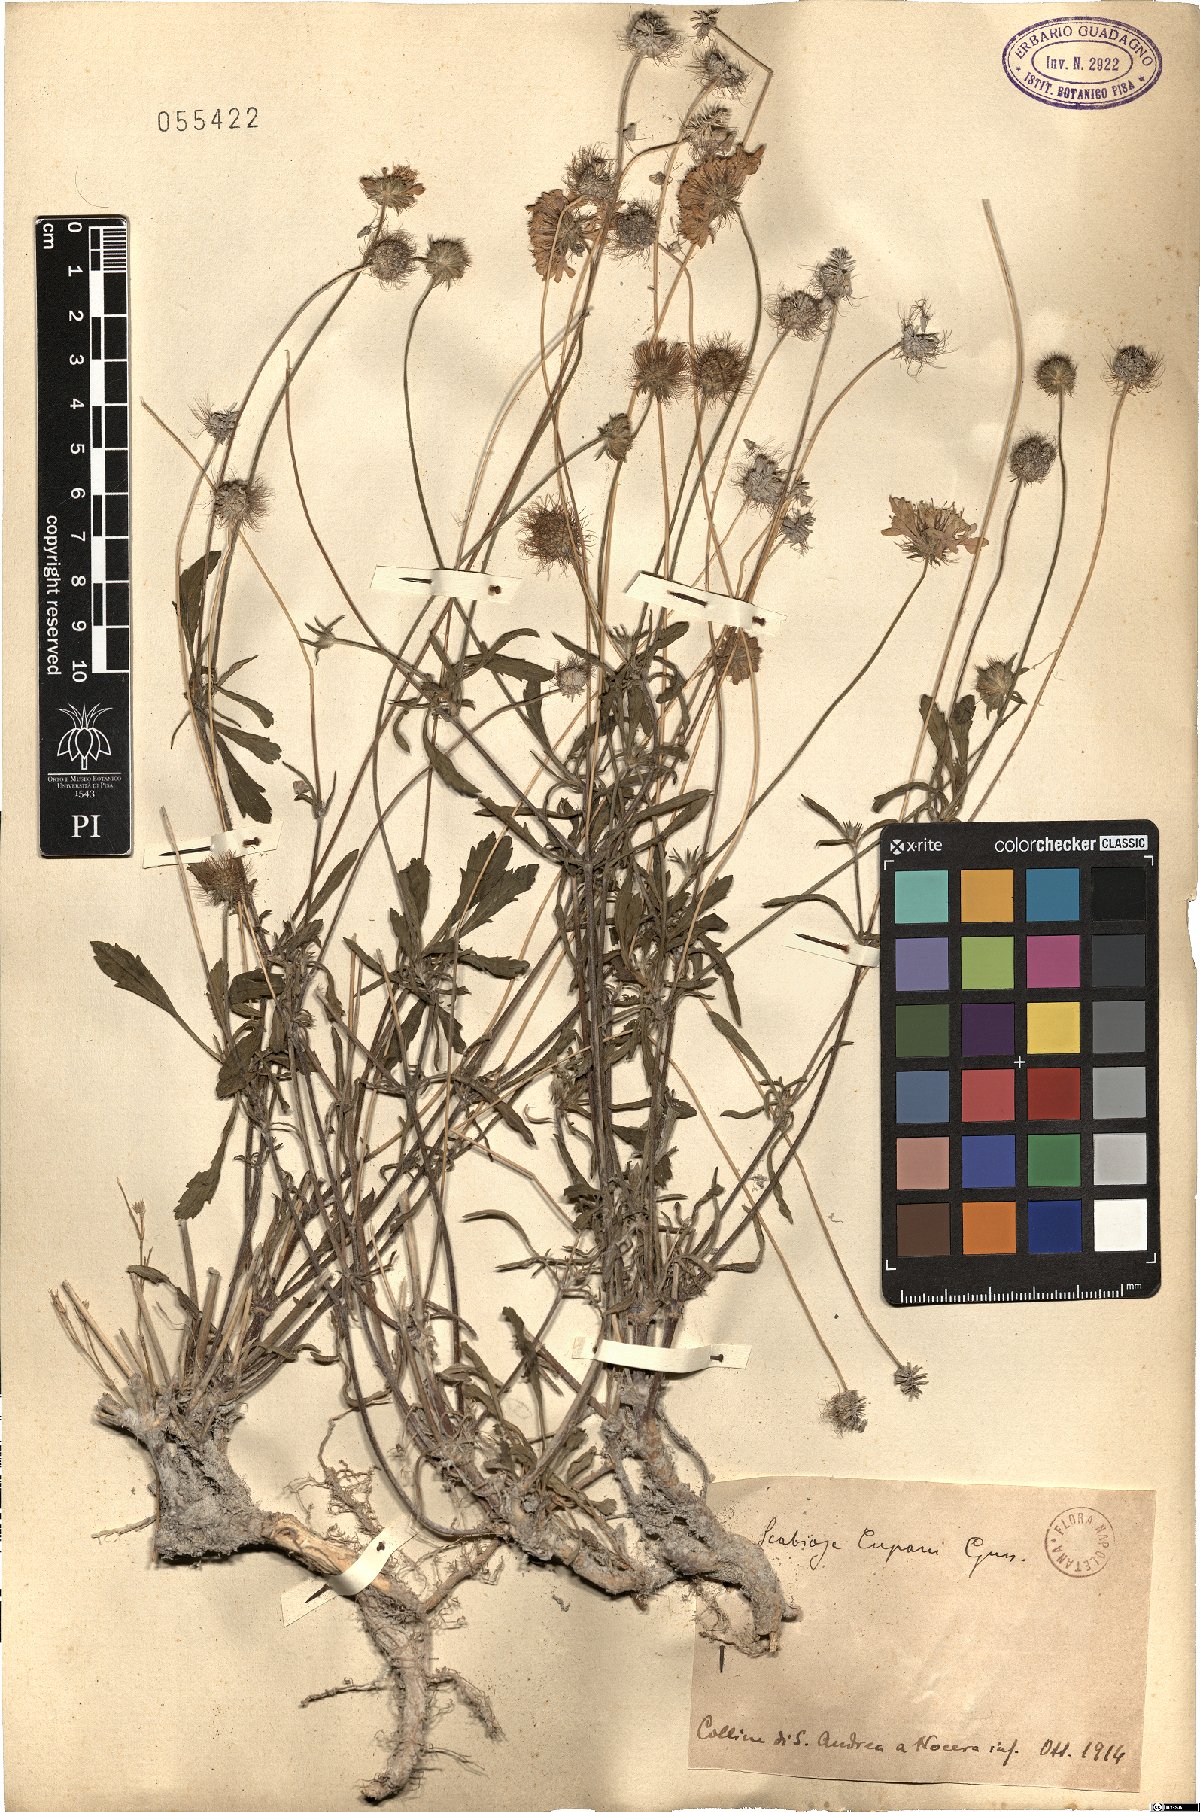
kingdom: Plantae
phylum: Tracheophyta
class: Magnoliopsida
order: Dipsacales
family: Caprifoliaceae
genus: Sixalix
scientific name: Sixalix maritima
